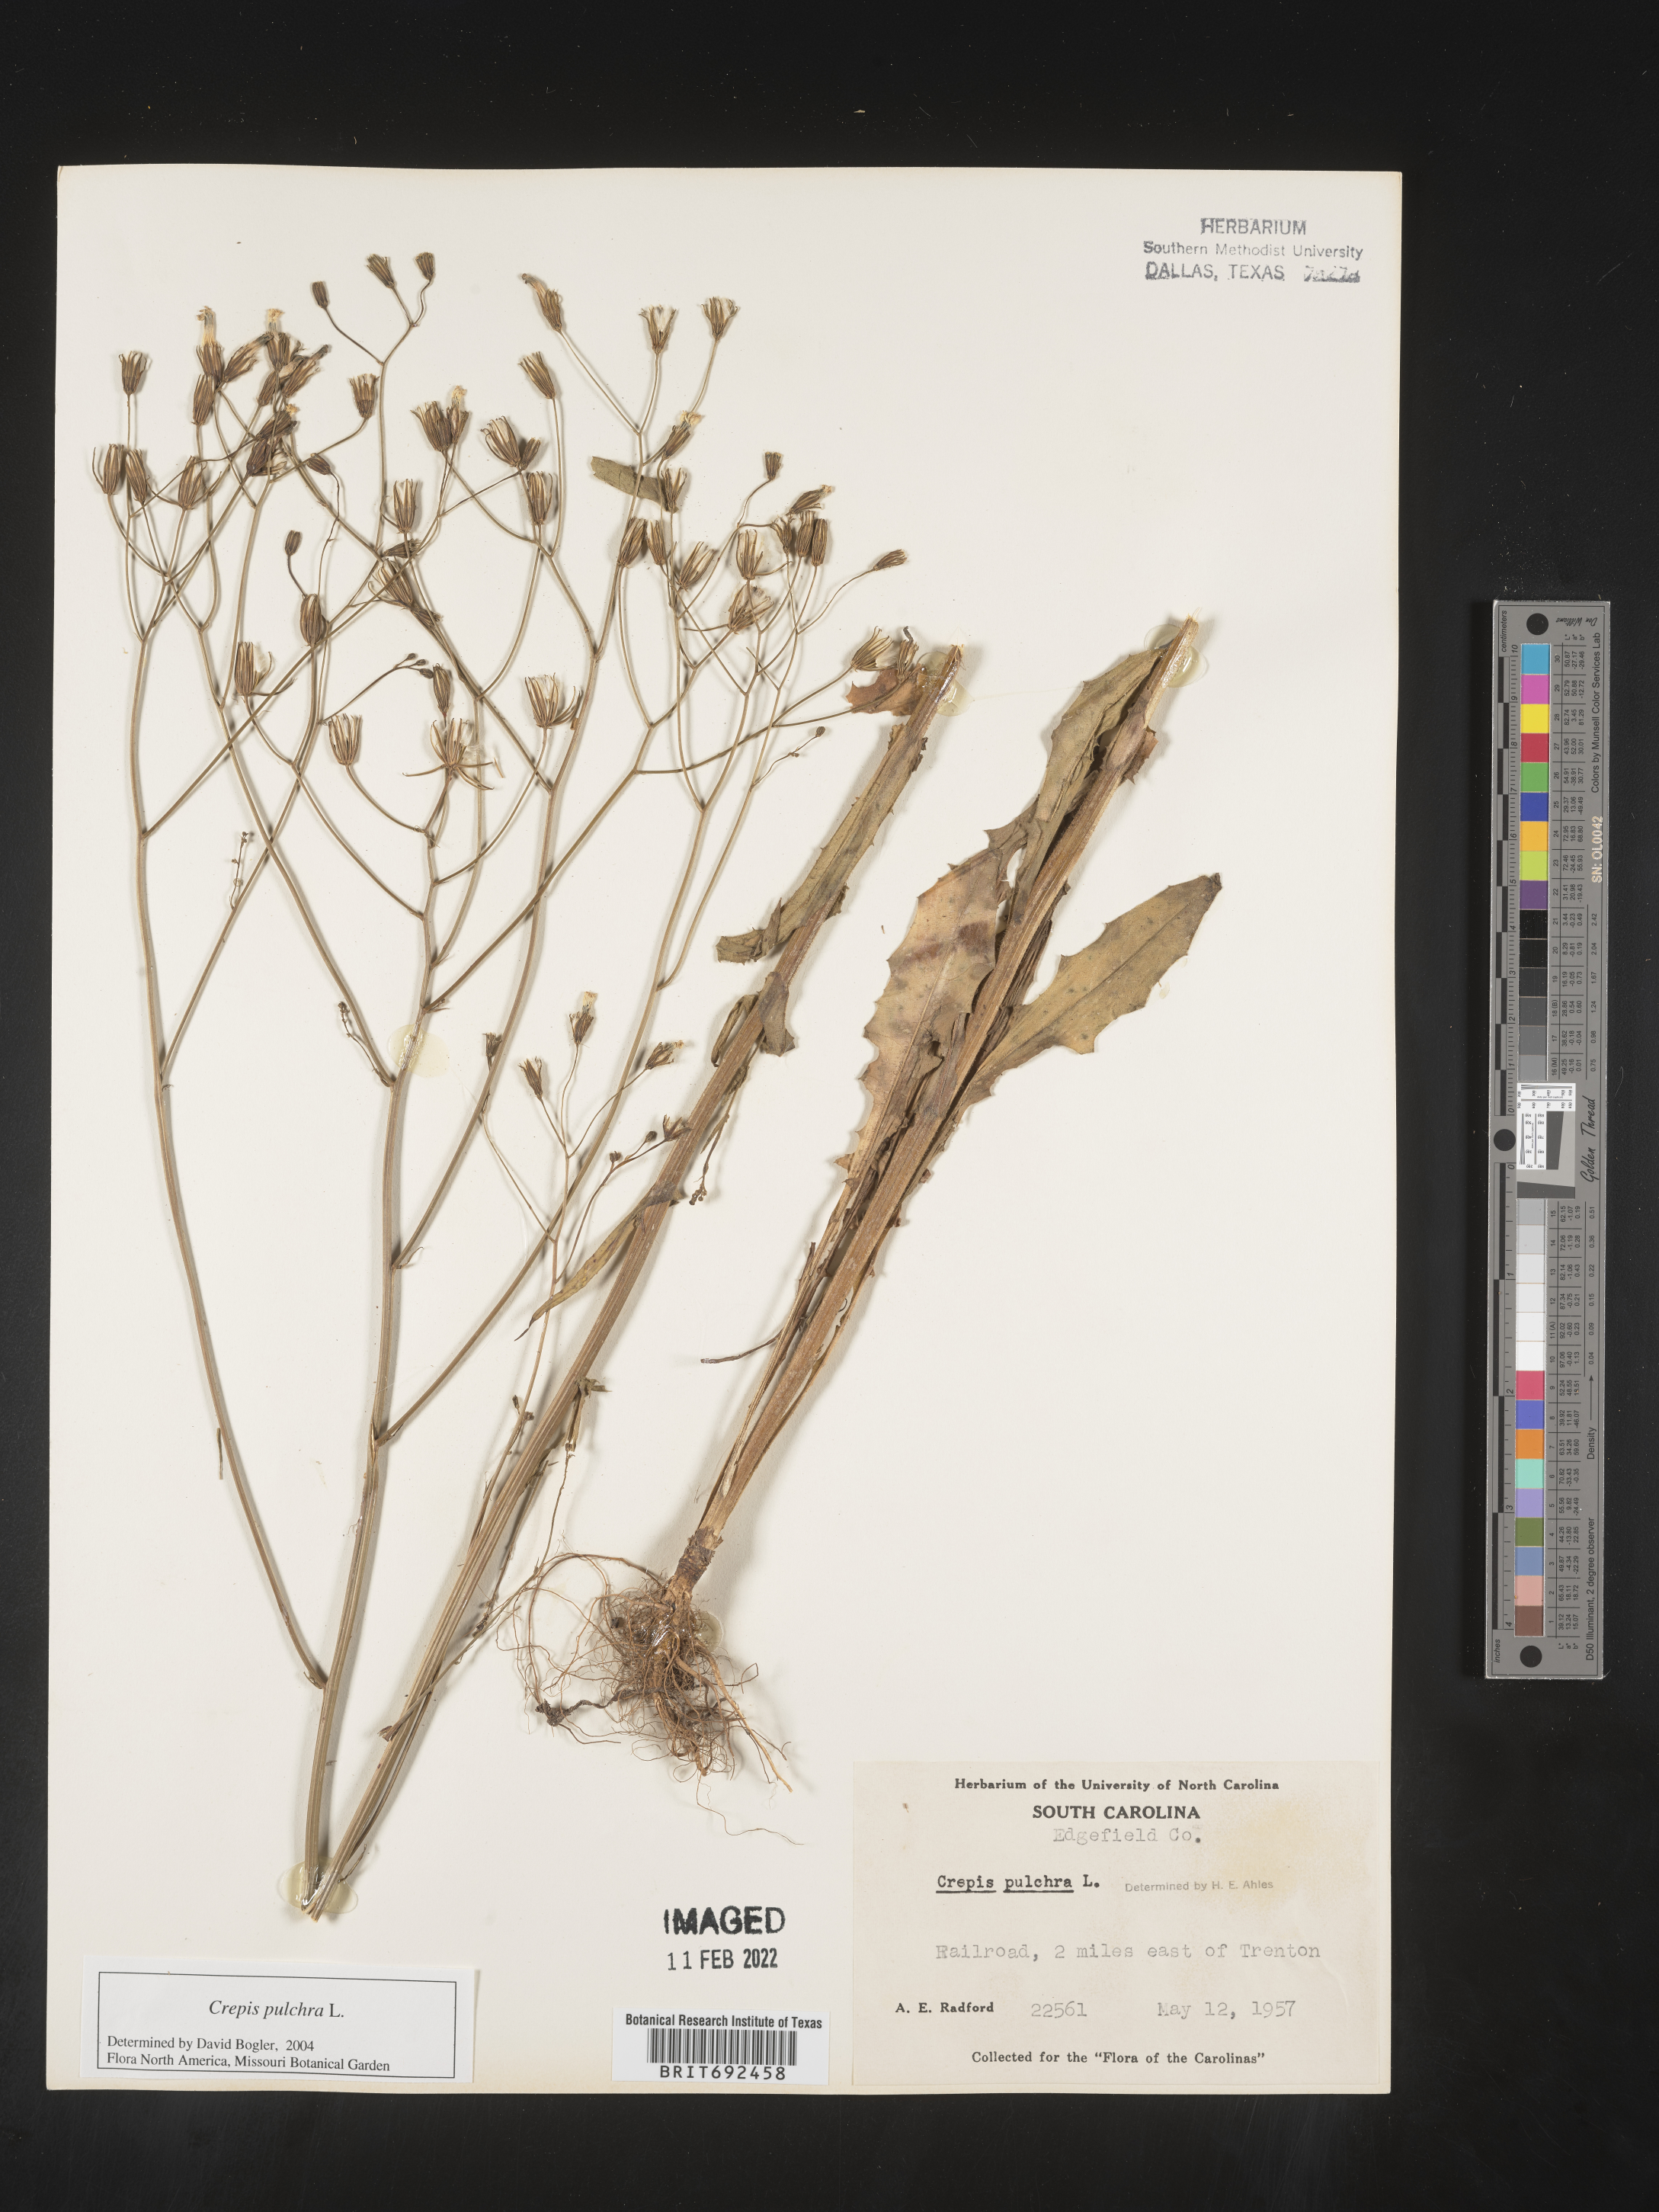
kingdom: Plantae
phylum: Tracheophyta
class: Magnoliopsida
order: Asterales
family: Asteraceae
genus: Crepis
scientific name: Crepis pulchra
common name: Hawk's-beard
